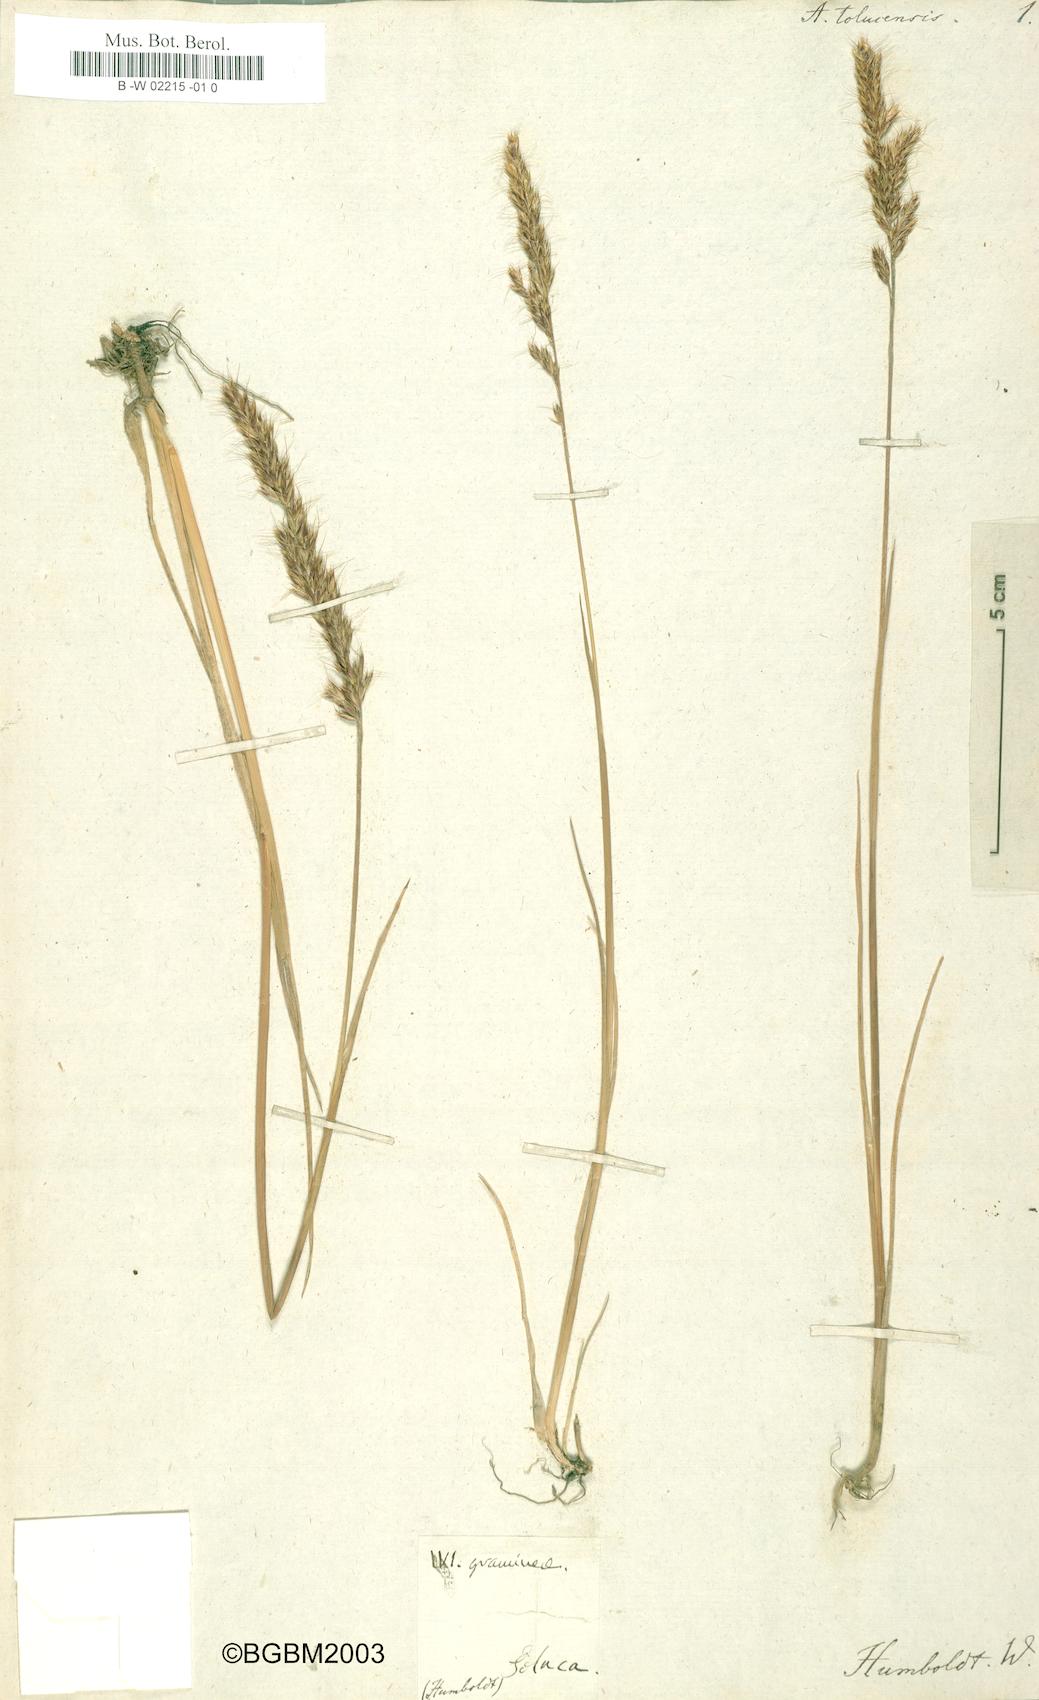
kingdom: Plantae
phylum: Tracheophyta
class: Liliopsida
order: Poales
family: Poaceae
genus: Koeleria
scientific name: Koeleria spicata
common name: Mountain trisetum
